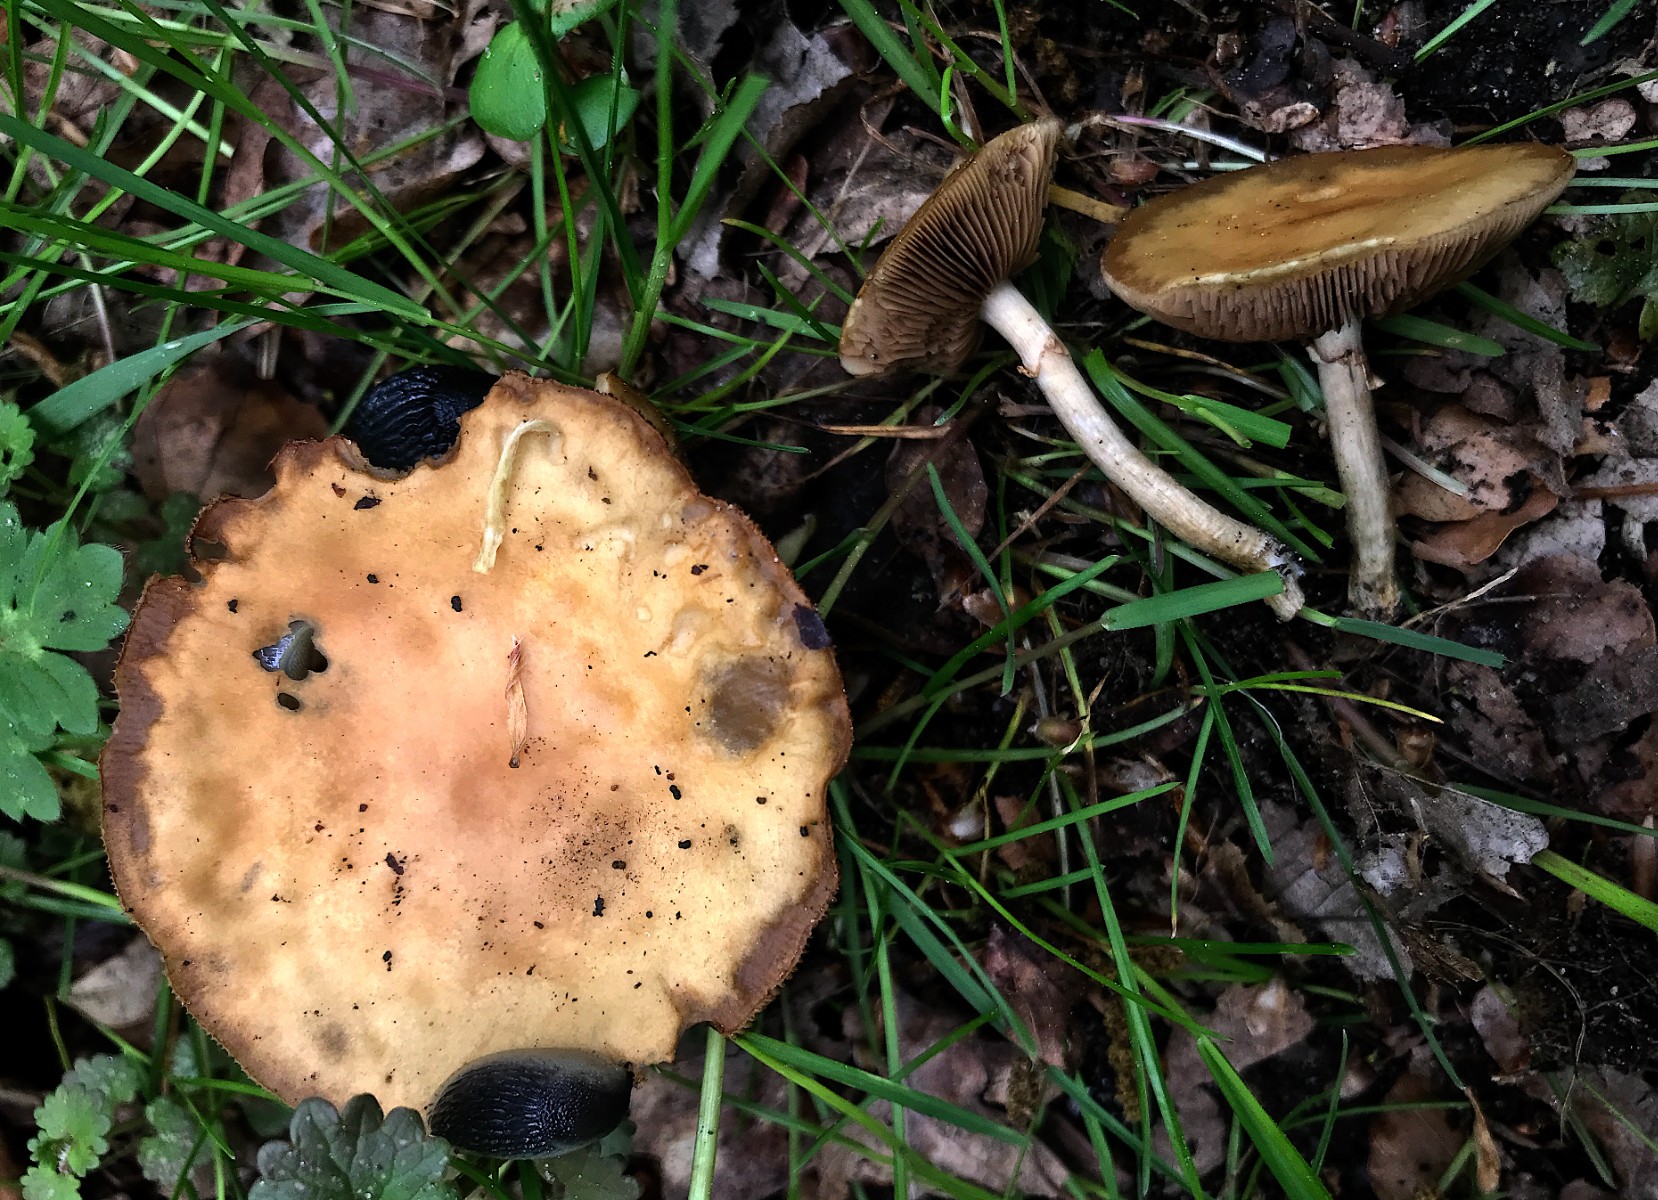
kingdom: Fungi
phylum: Basidiomycota
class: Agaricomycetes
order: Agaricales
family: Strophariaceae
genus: Agrocybe
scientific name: Agrocybe praecox
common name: tidlig agerhat
